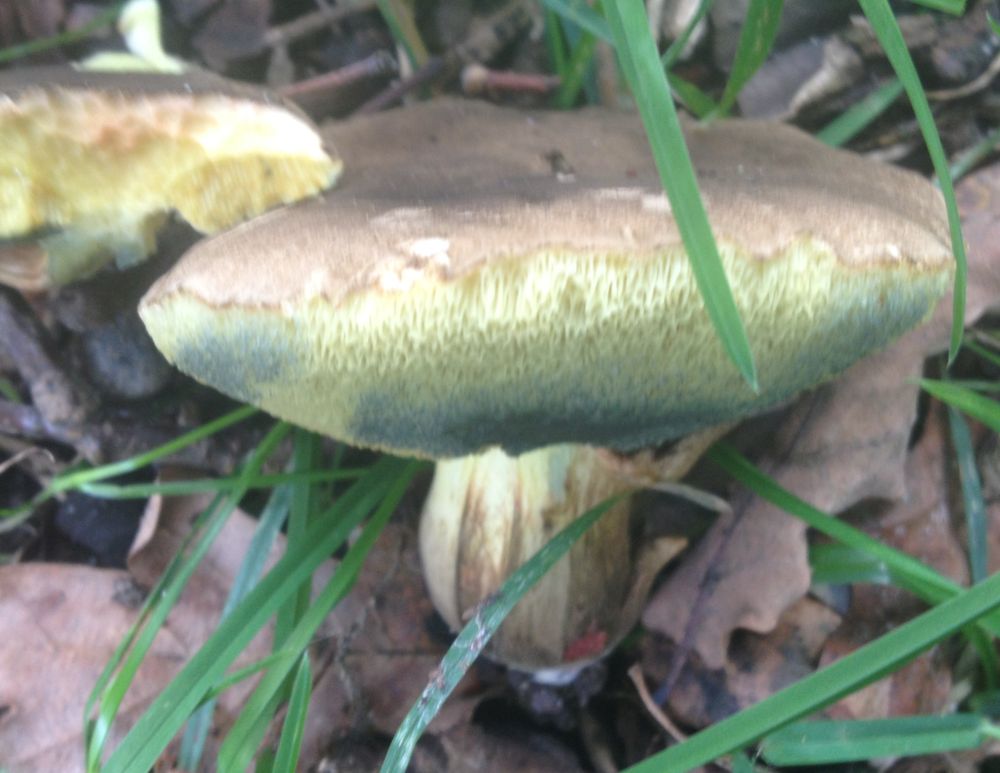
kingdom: Fungi
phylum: Basidiomycota
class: Agaricomycetes
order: Boletales
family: Boletaceae
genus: Xerocomellus
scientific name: Xerocomellus porosporus
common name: hvidsprukken rørhat
